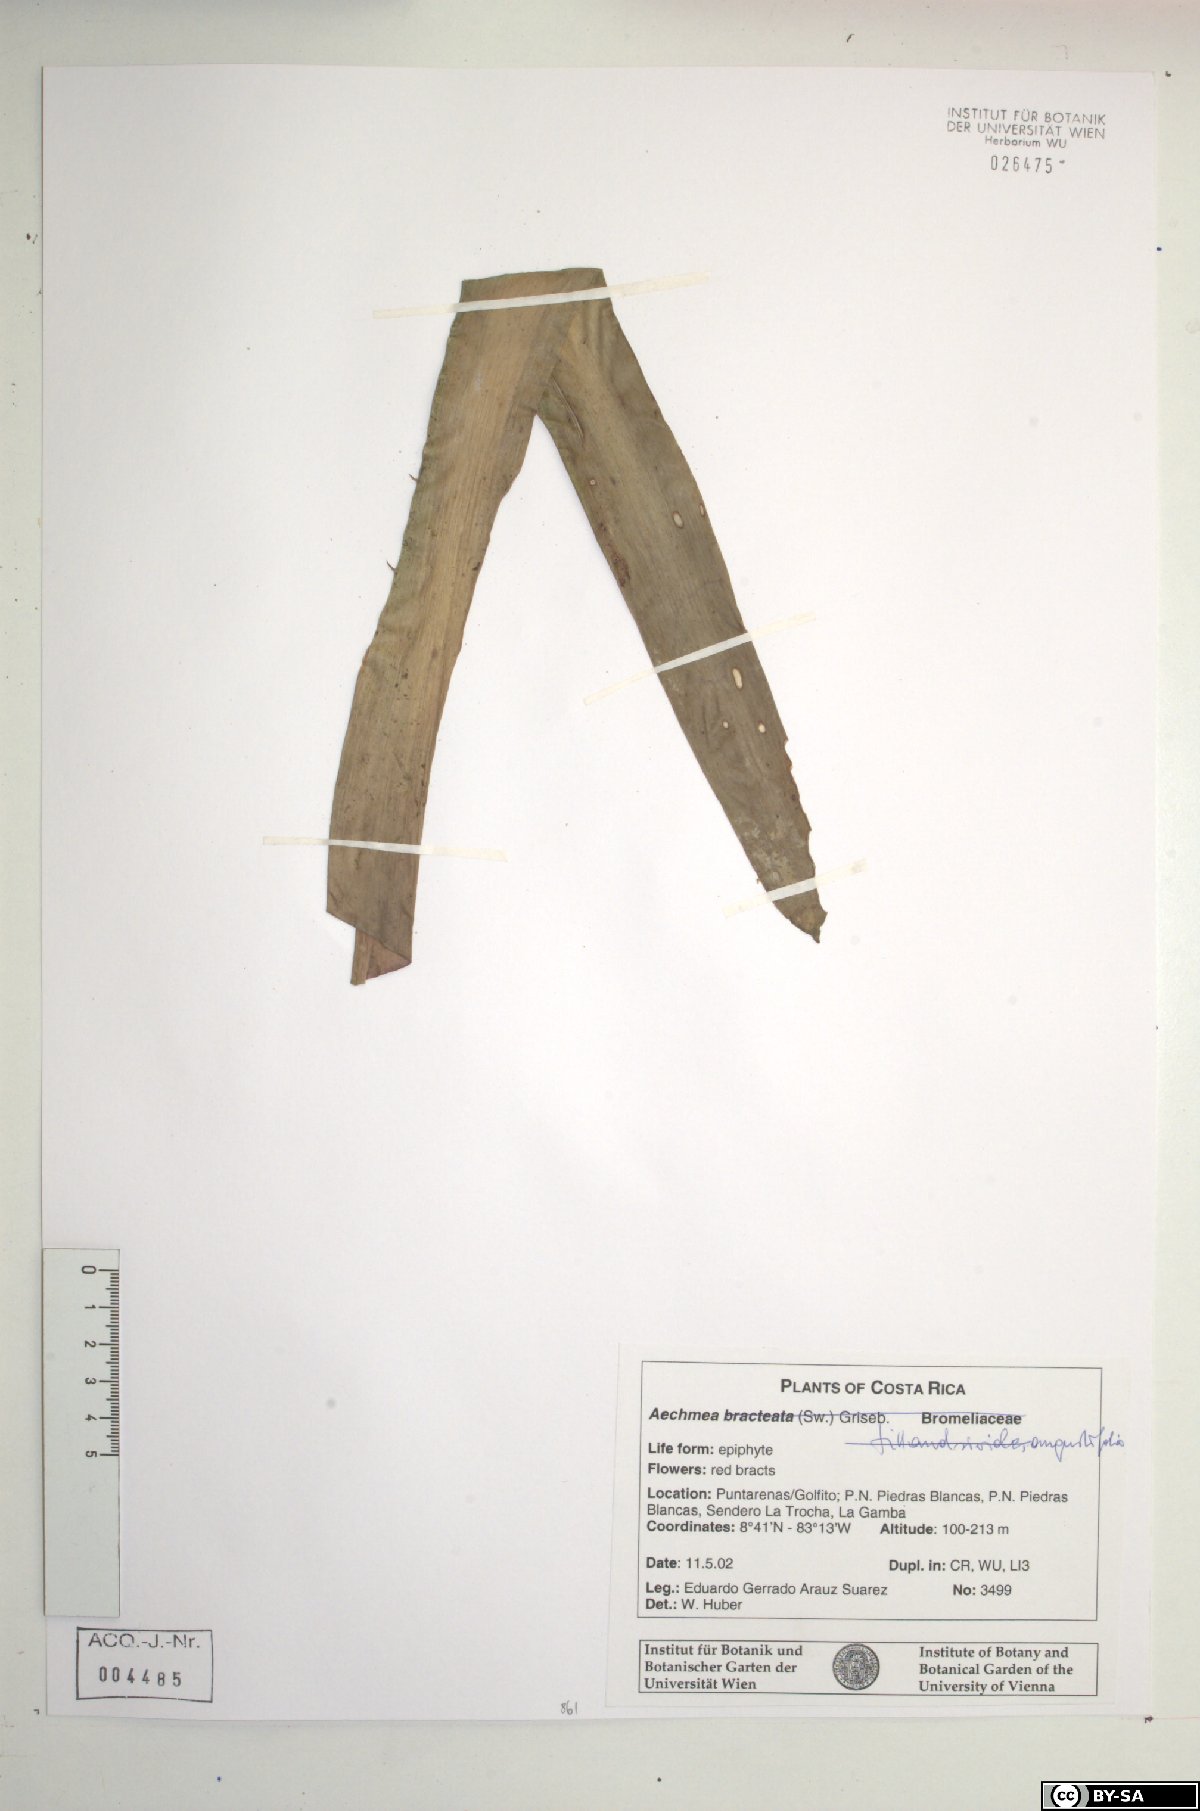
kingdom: Plantae
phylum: Tracheophyta
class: Liliopsida
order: Poales
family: Bromeliaceae
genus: Aechmea
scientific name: Aechmea bracteata
